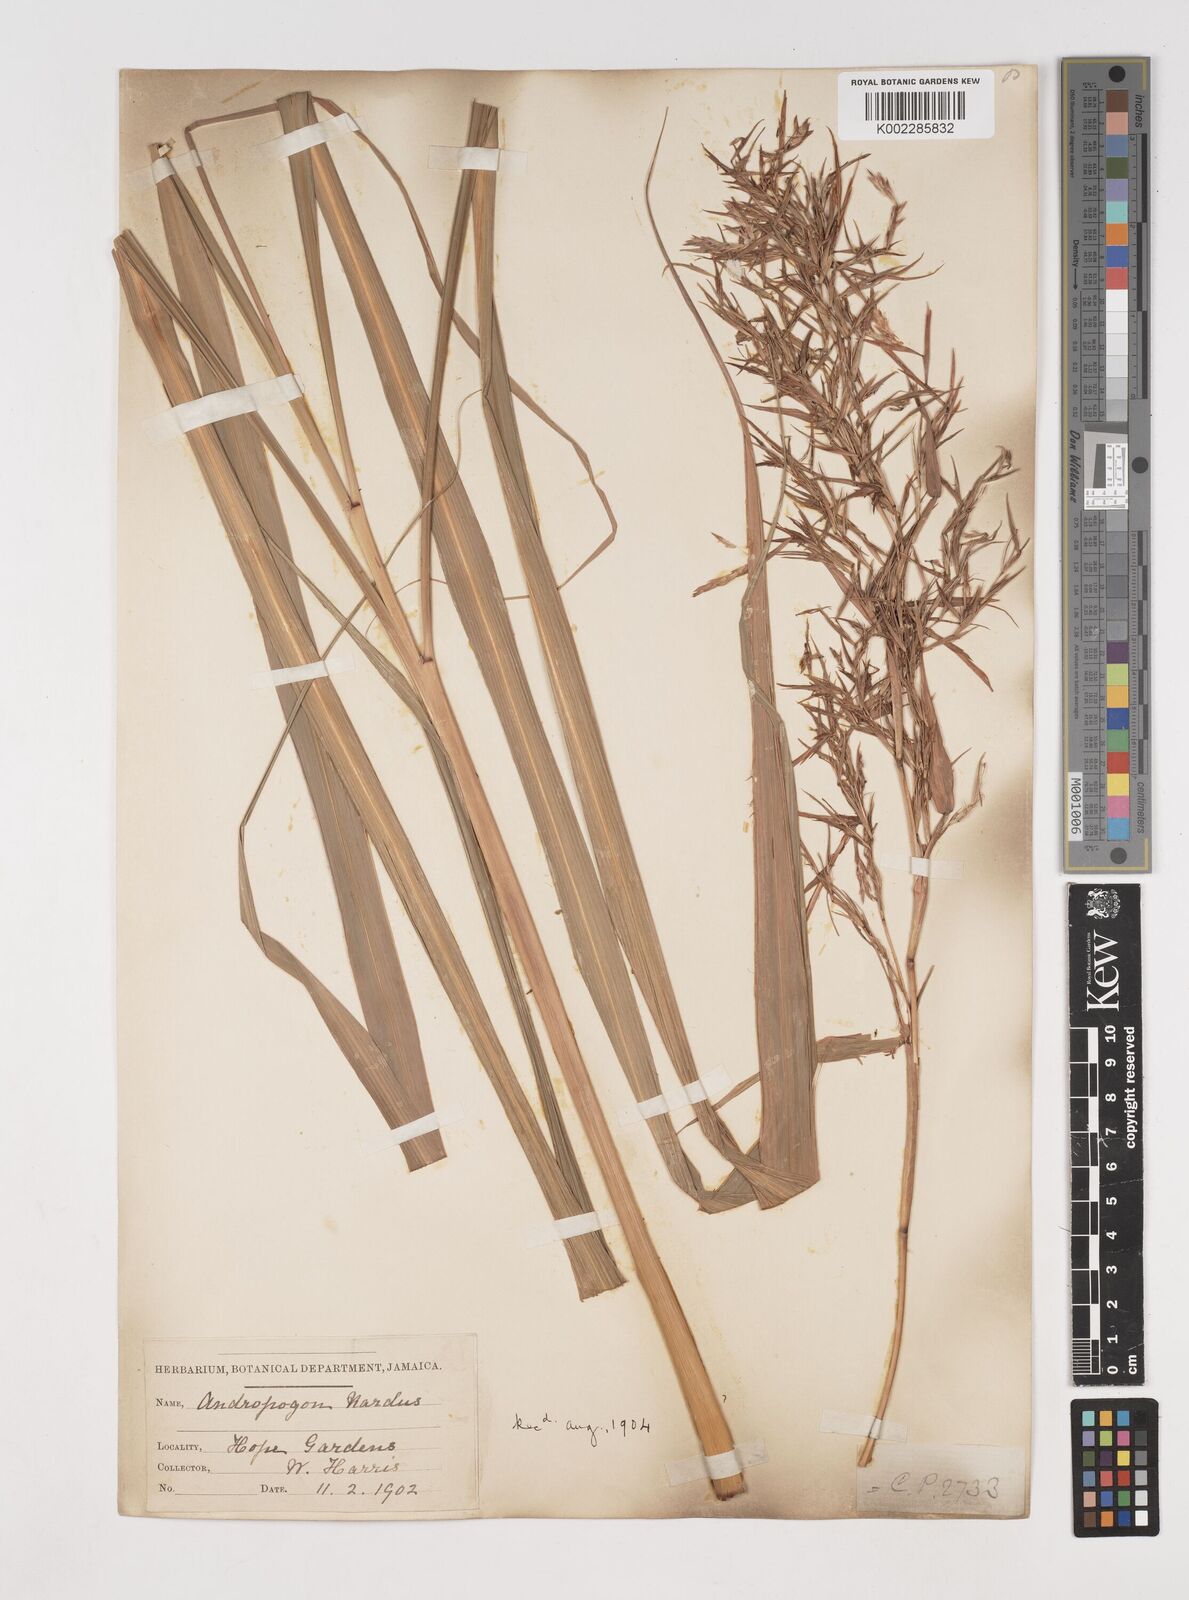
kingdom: Plantae
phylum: Tracheophyta
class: Liliopsida
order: Poales
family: Poaceae
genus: Cymbopogon
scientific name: Cymbopogon winterianus
